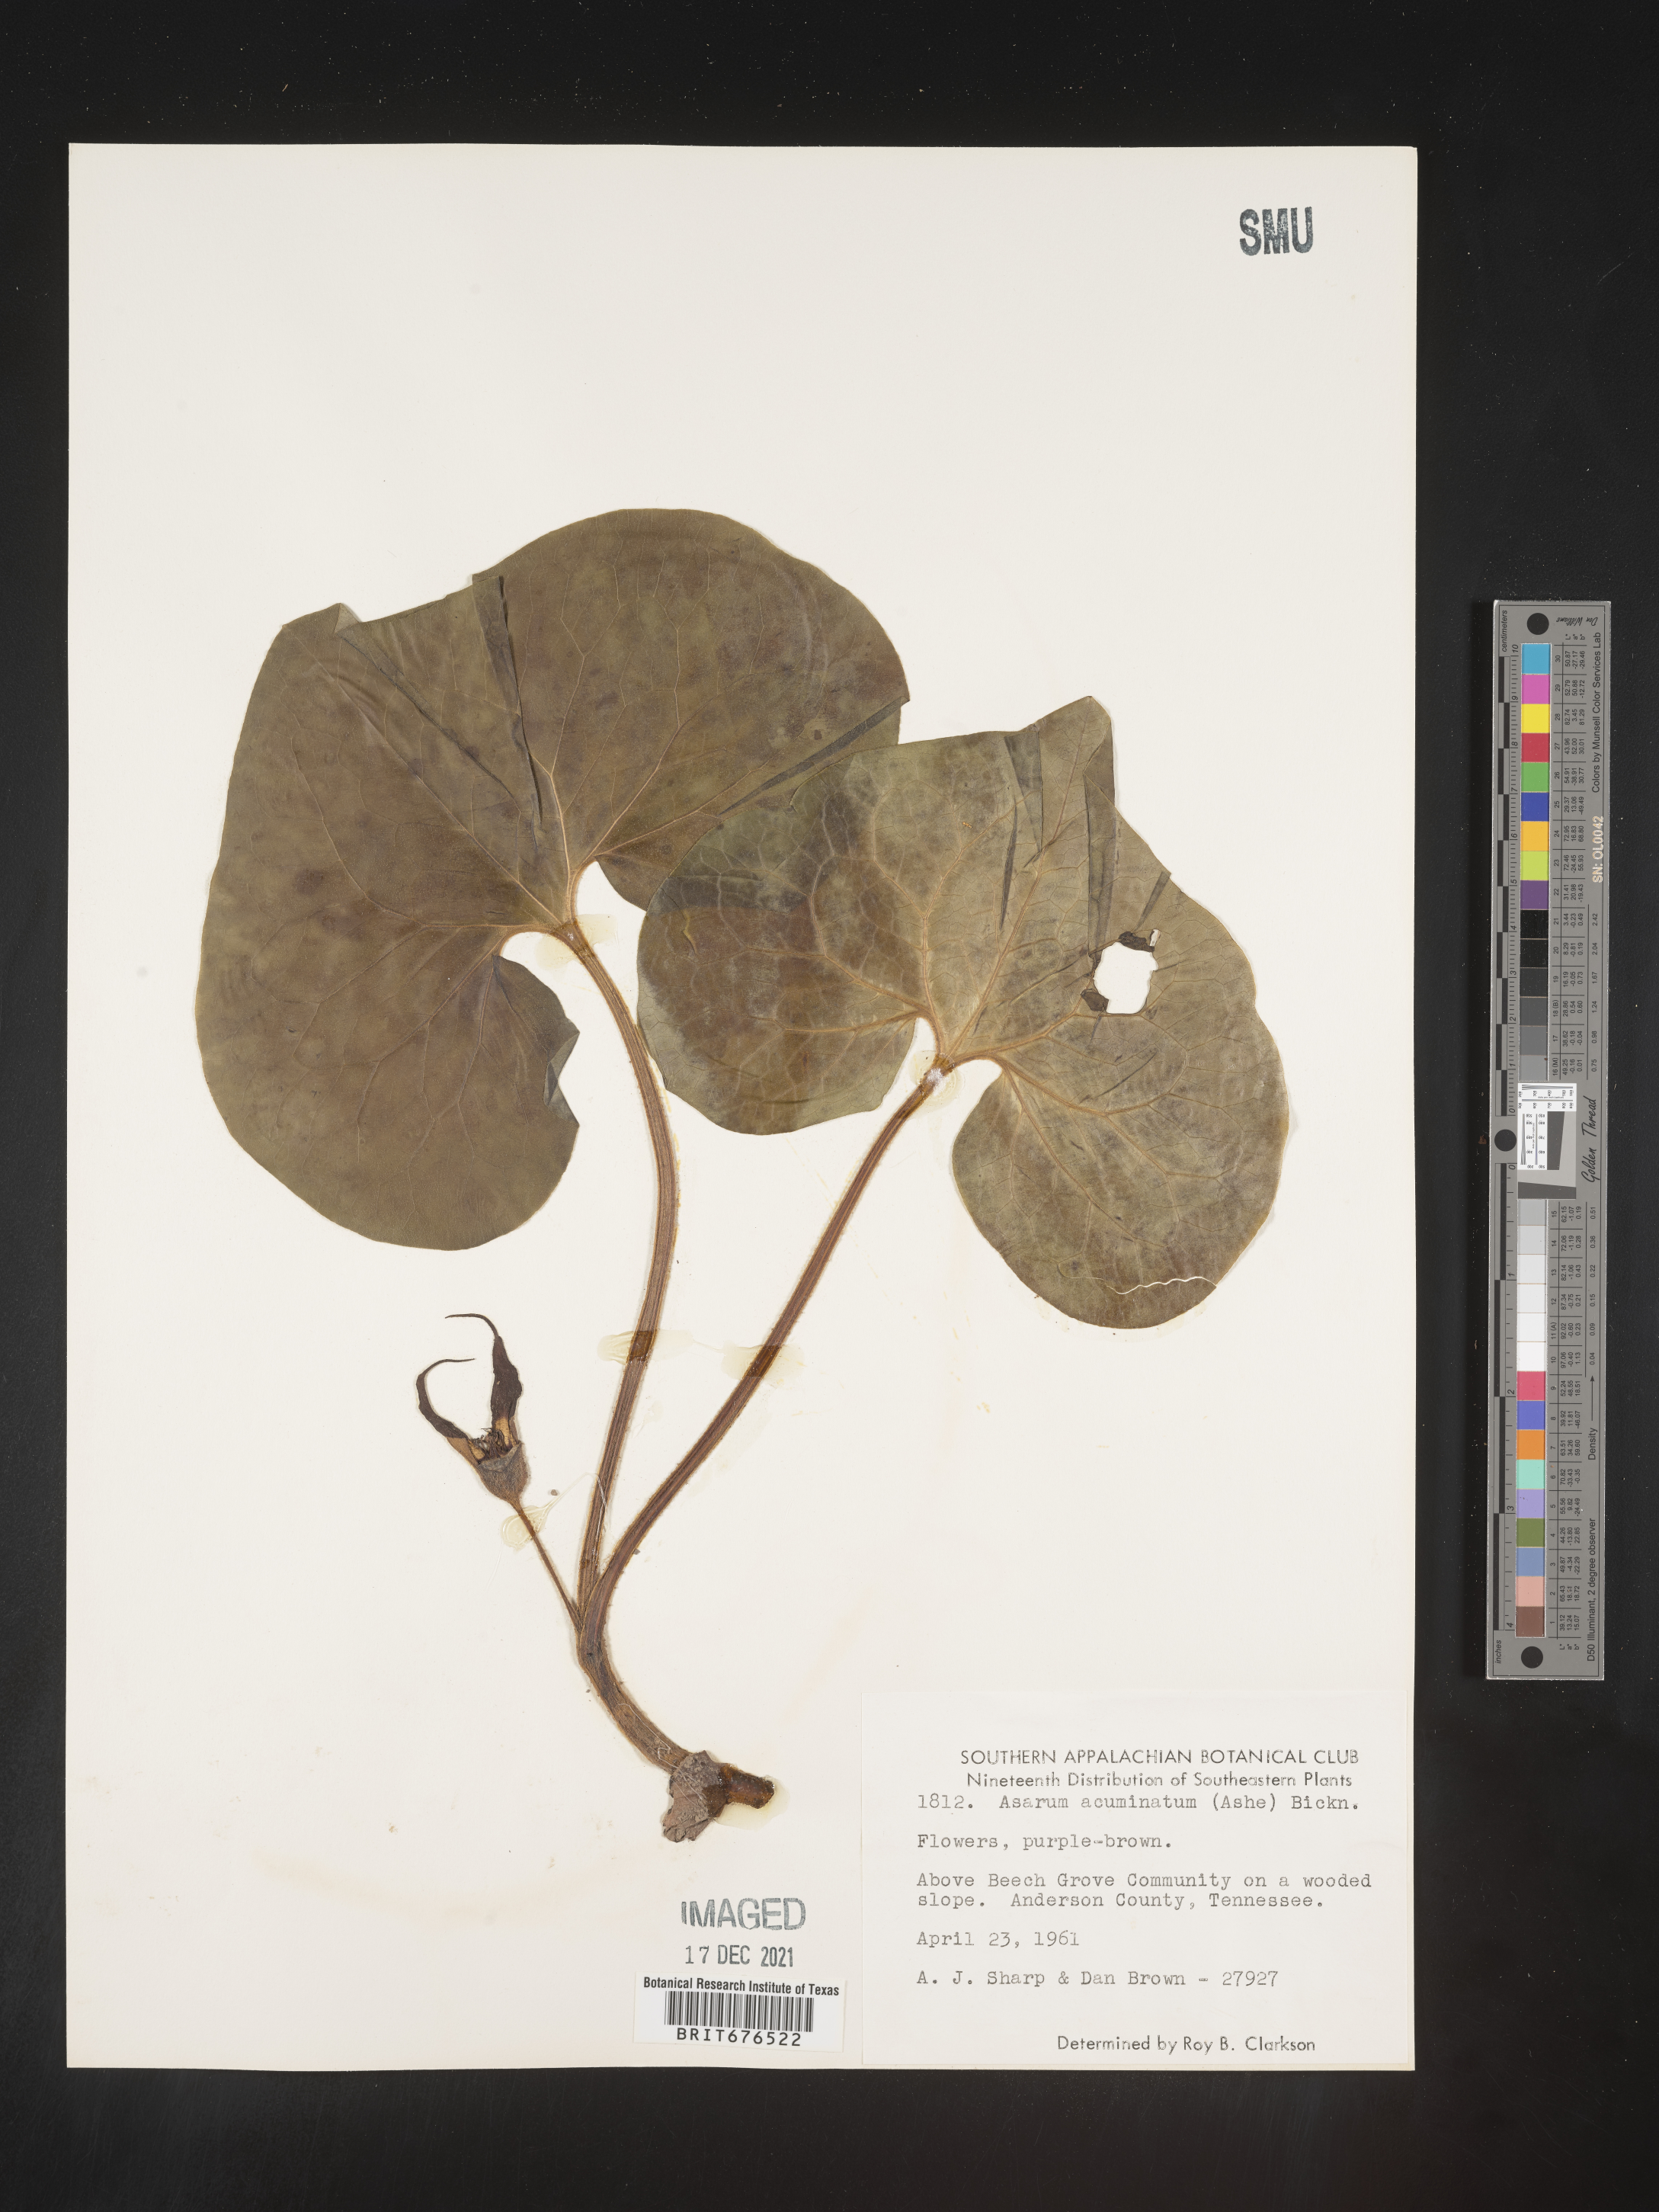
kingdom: Plantae
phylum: Tracheophyta
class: Magnoliopsida
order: Piperales
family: Aristolochiaceae
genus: Asarum
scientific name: Asarum canadense
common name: Wild ginger
